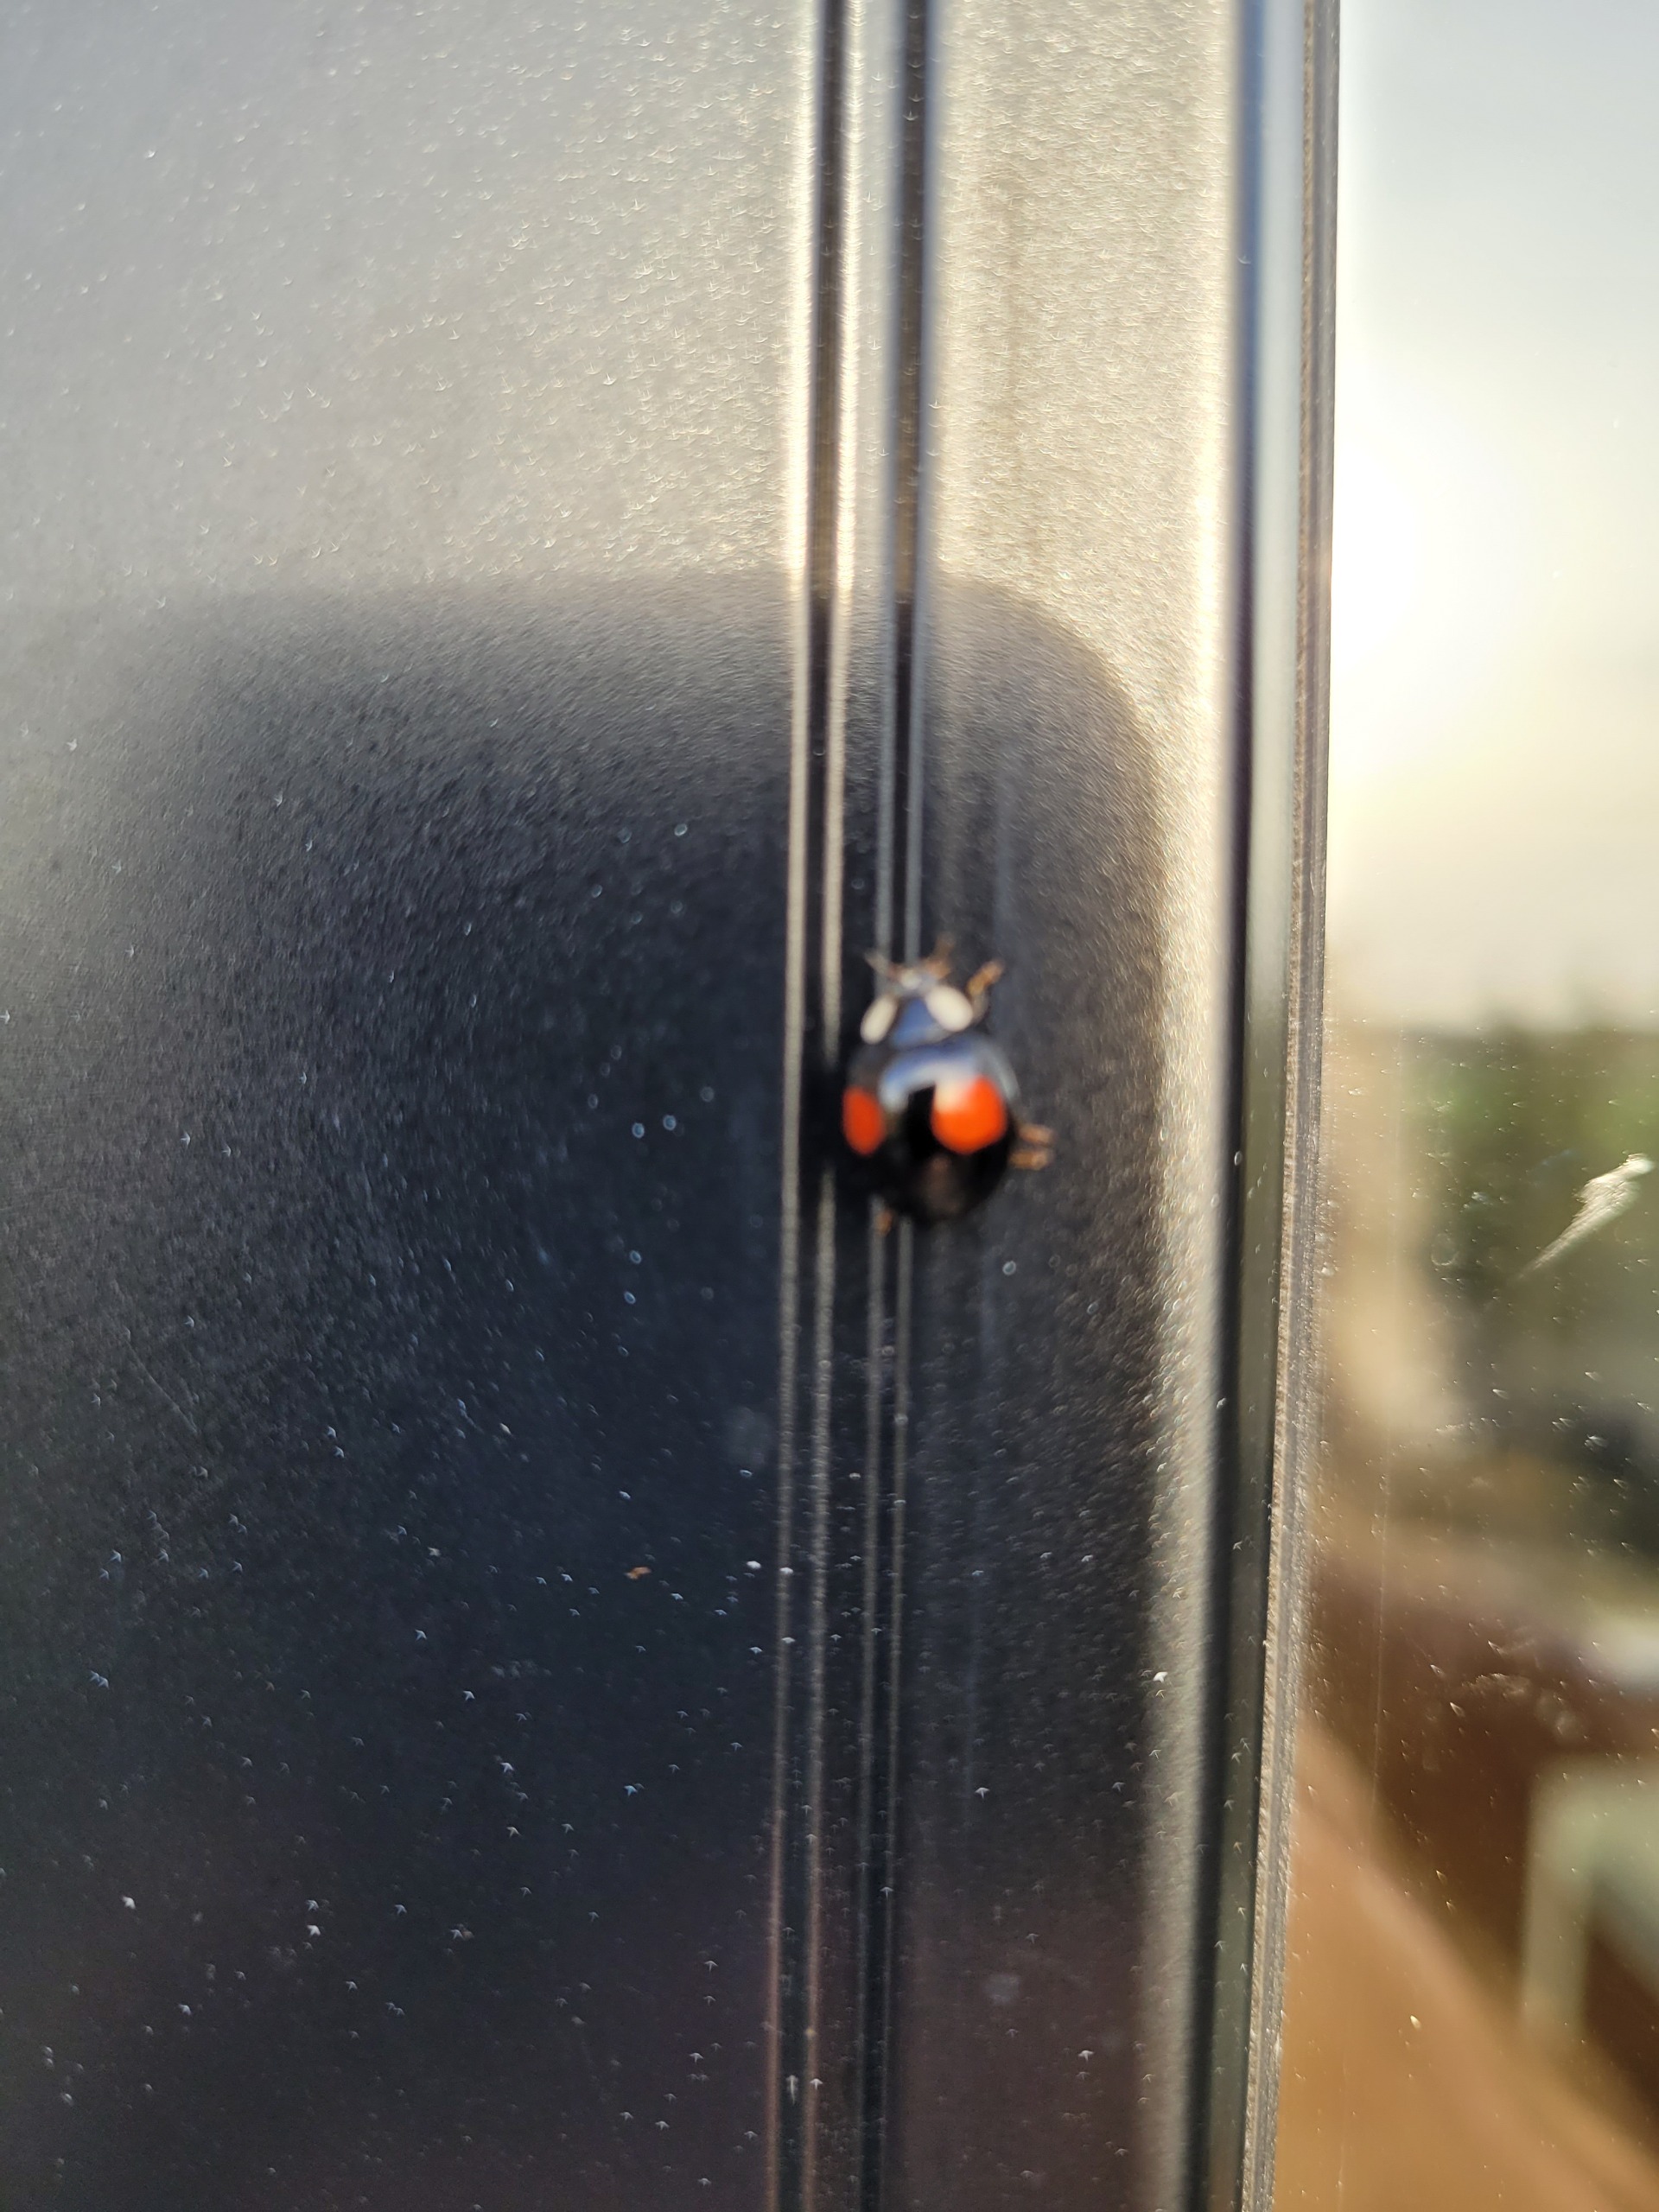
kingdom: Animalia
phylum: Arthropoda
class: Insecta
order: Coleoptera
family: Coccinellidae
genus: Harmonia
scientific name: Harmonia axyridis
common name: Harlekinmariehøne
